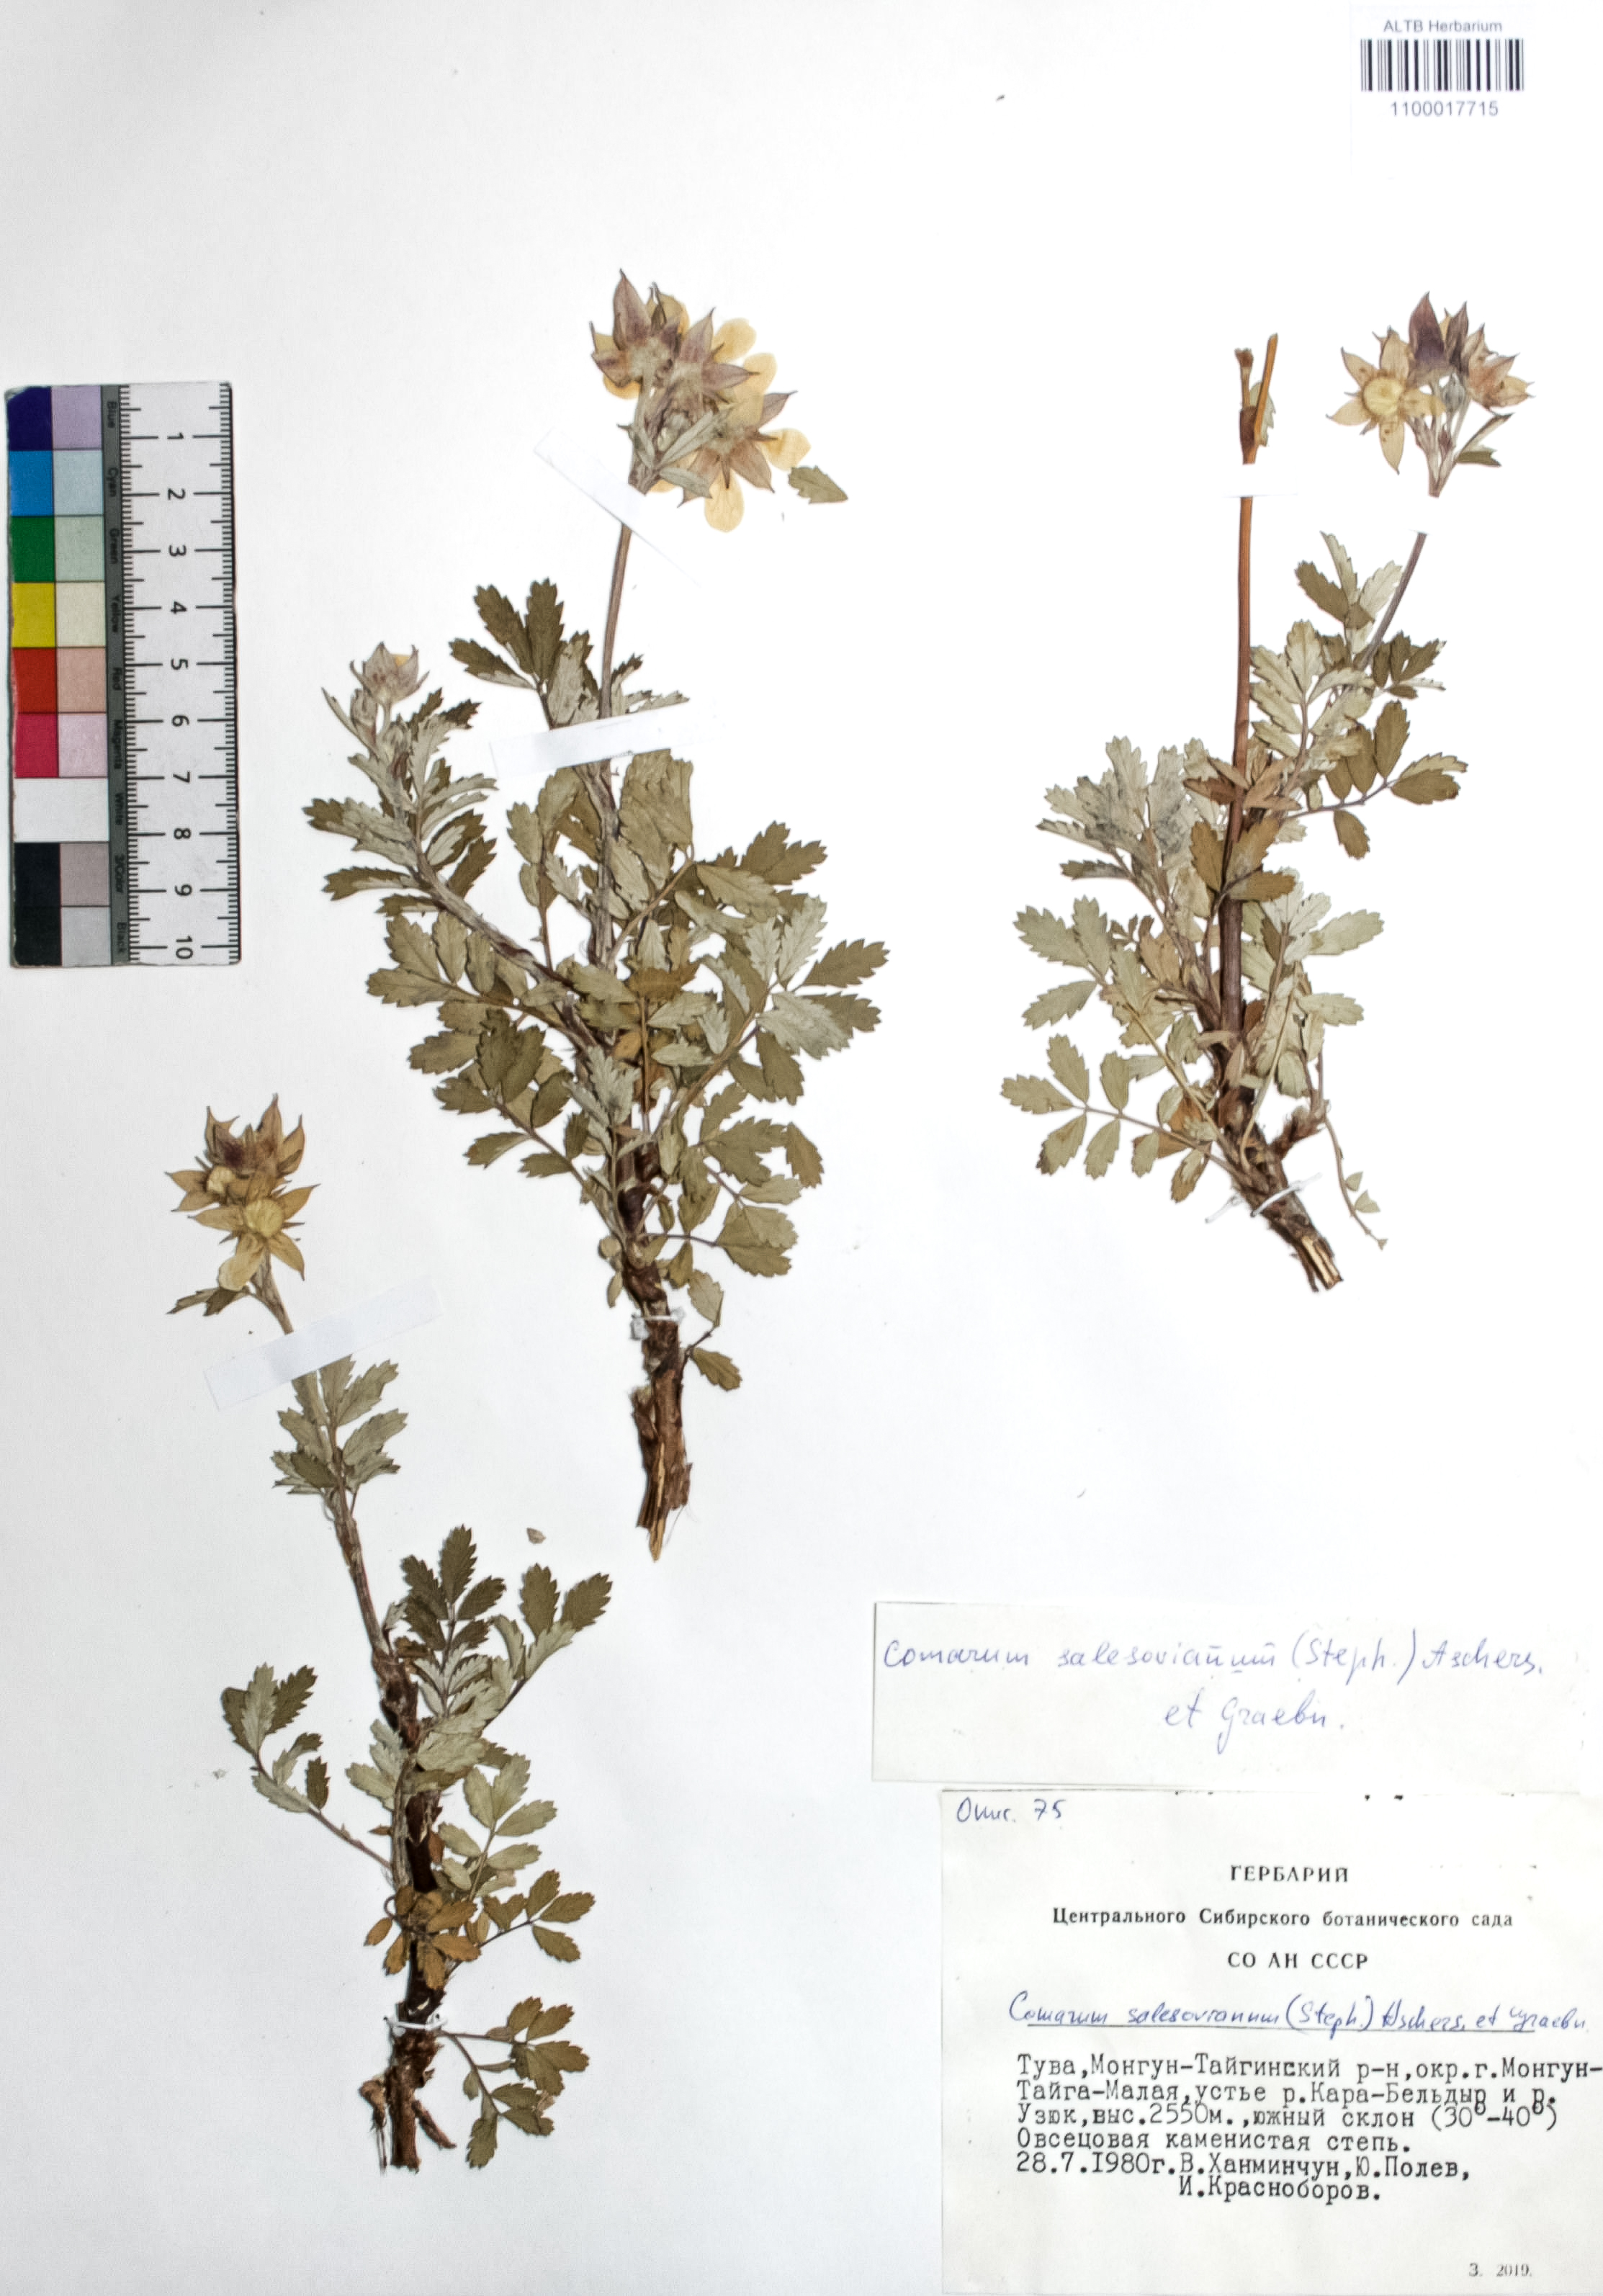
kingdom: Plantae
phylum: Tracheophyta
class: Magnoliopsida
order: Rosales
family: Rosaceae
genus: Farinopsis
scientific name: Farinopsis salesoviana
